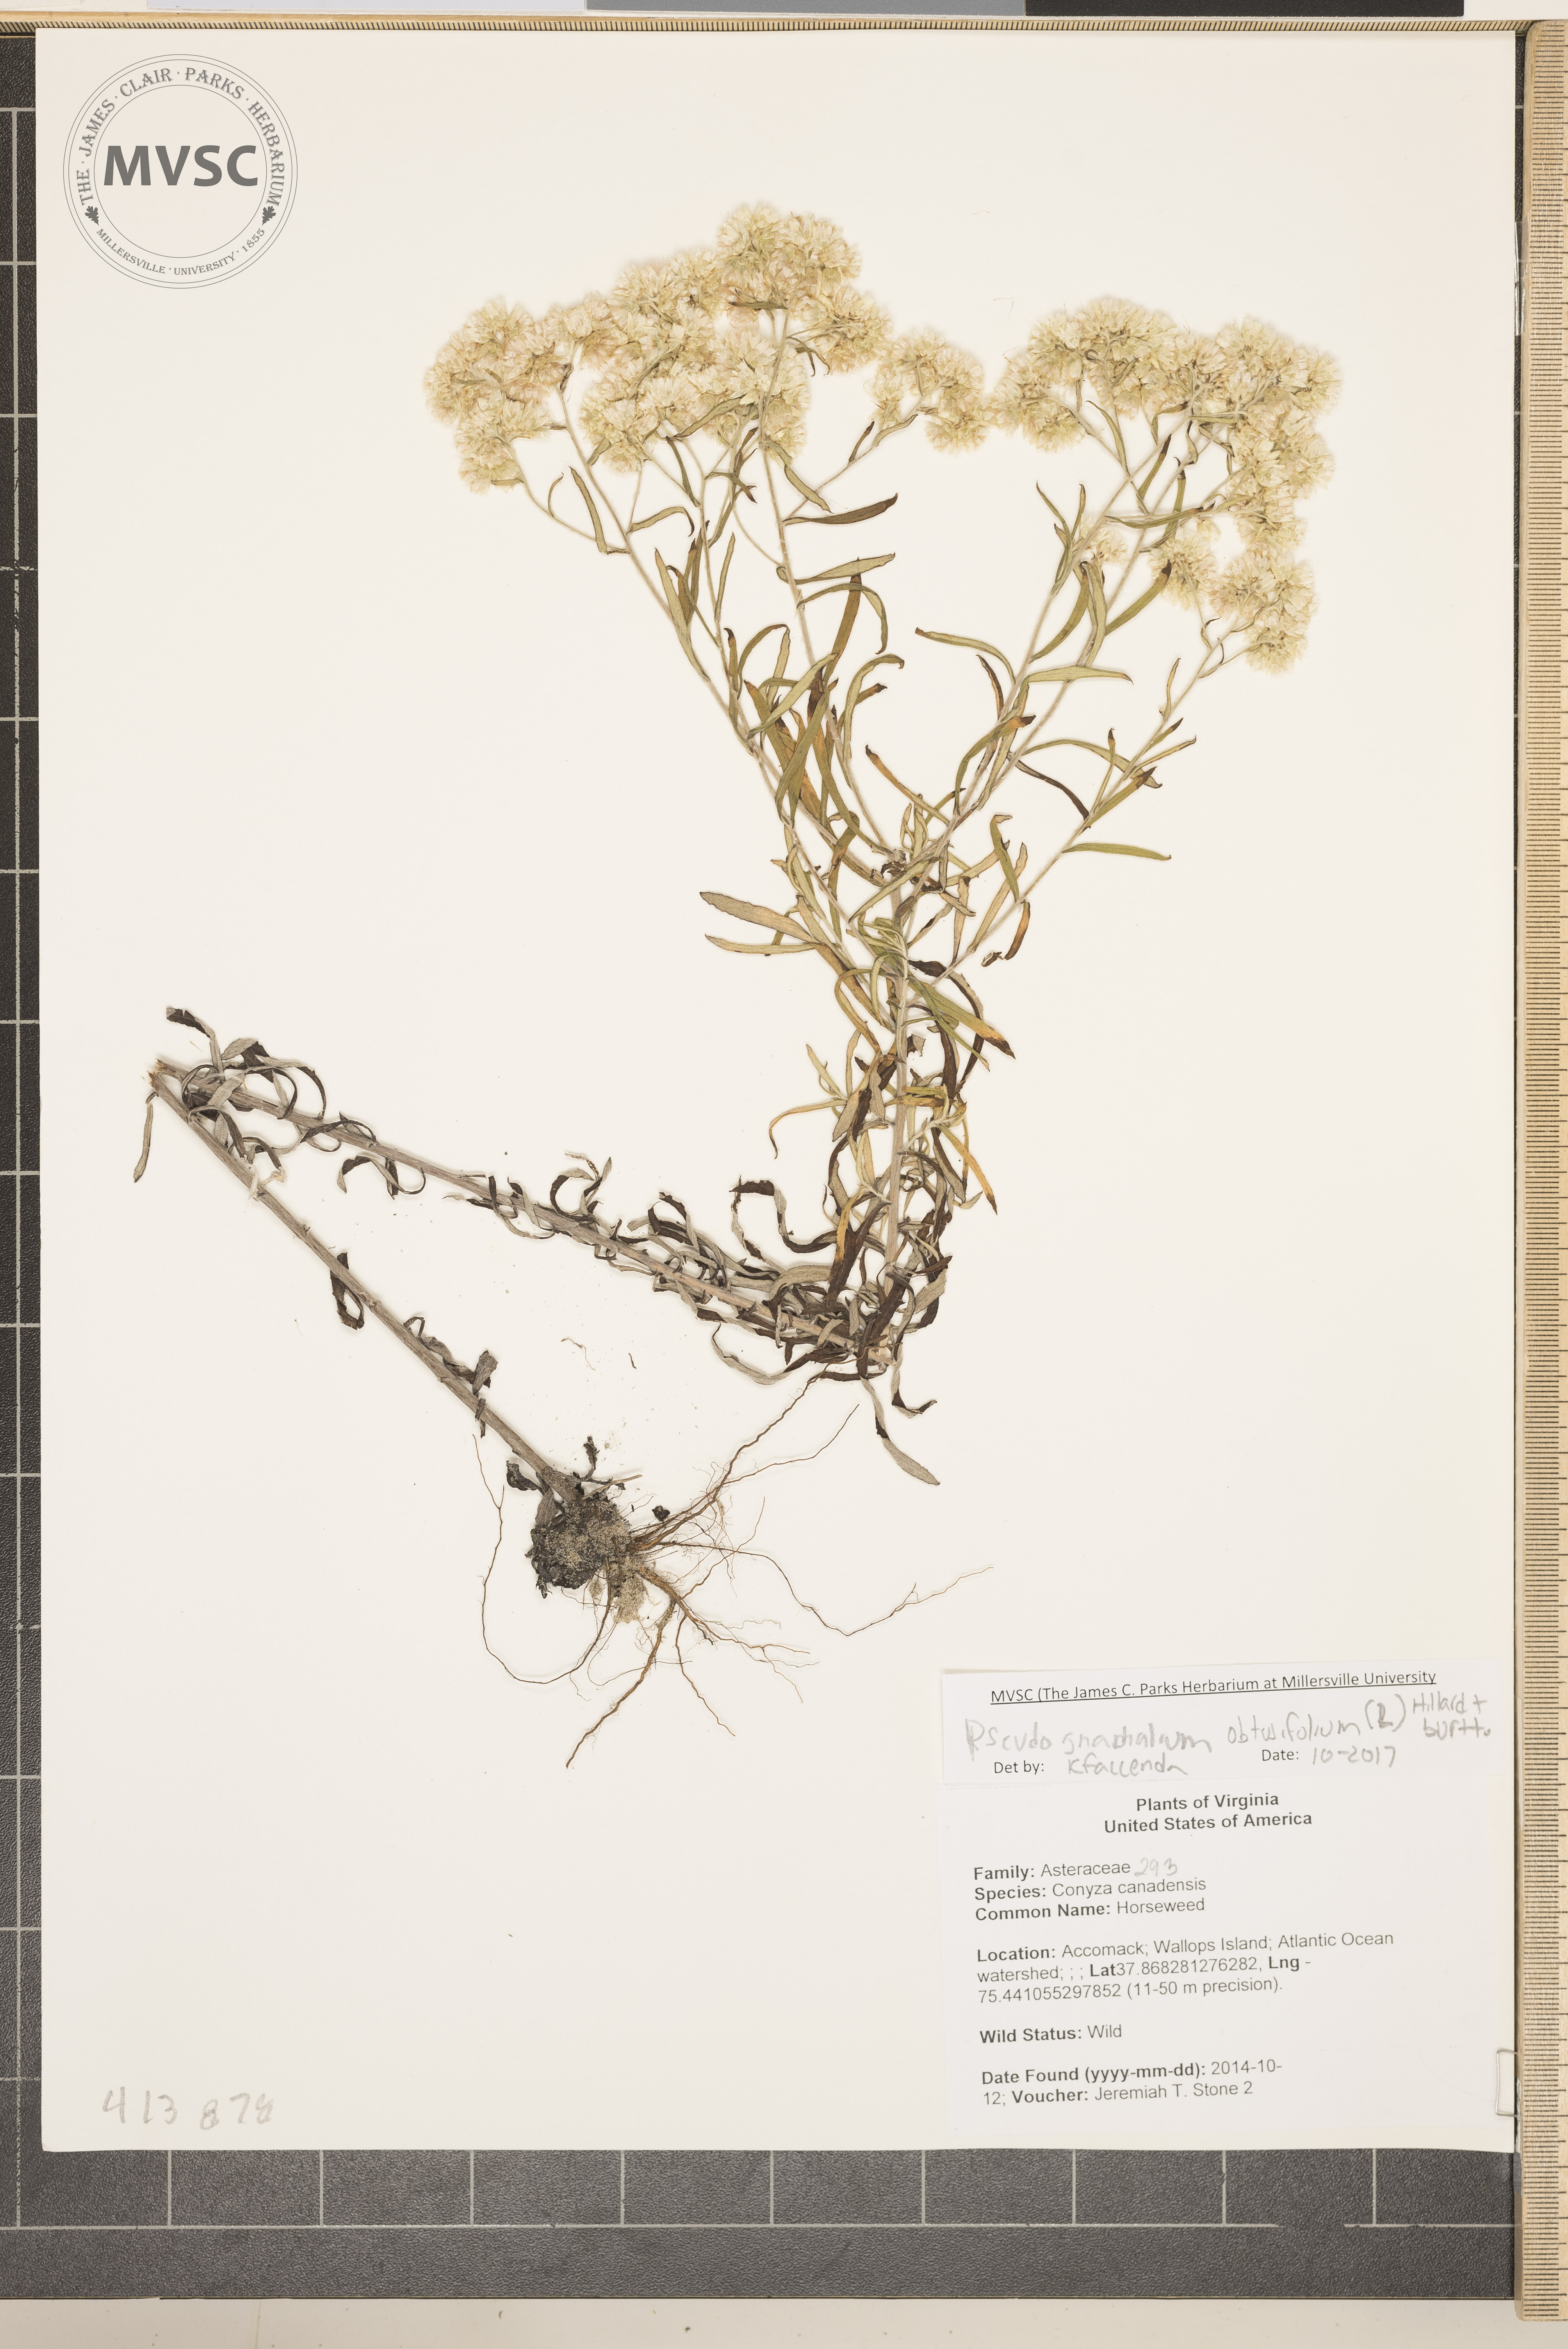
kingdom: Plantae
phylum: Tracheophyta
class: Magnoliopsida
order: Asterales
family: Asteraceae
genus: Pseudognaphalium
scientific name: Pseudognaphalium obtusifolium
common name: Eastern rabbit-tobacco
